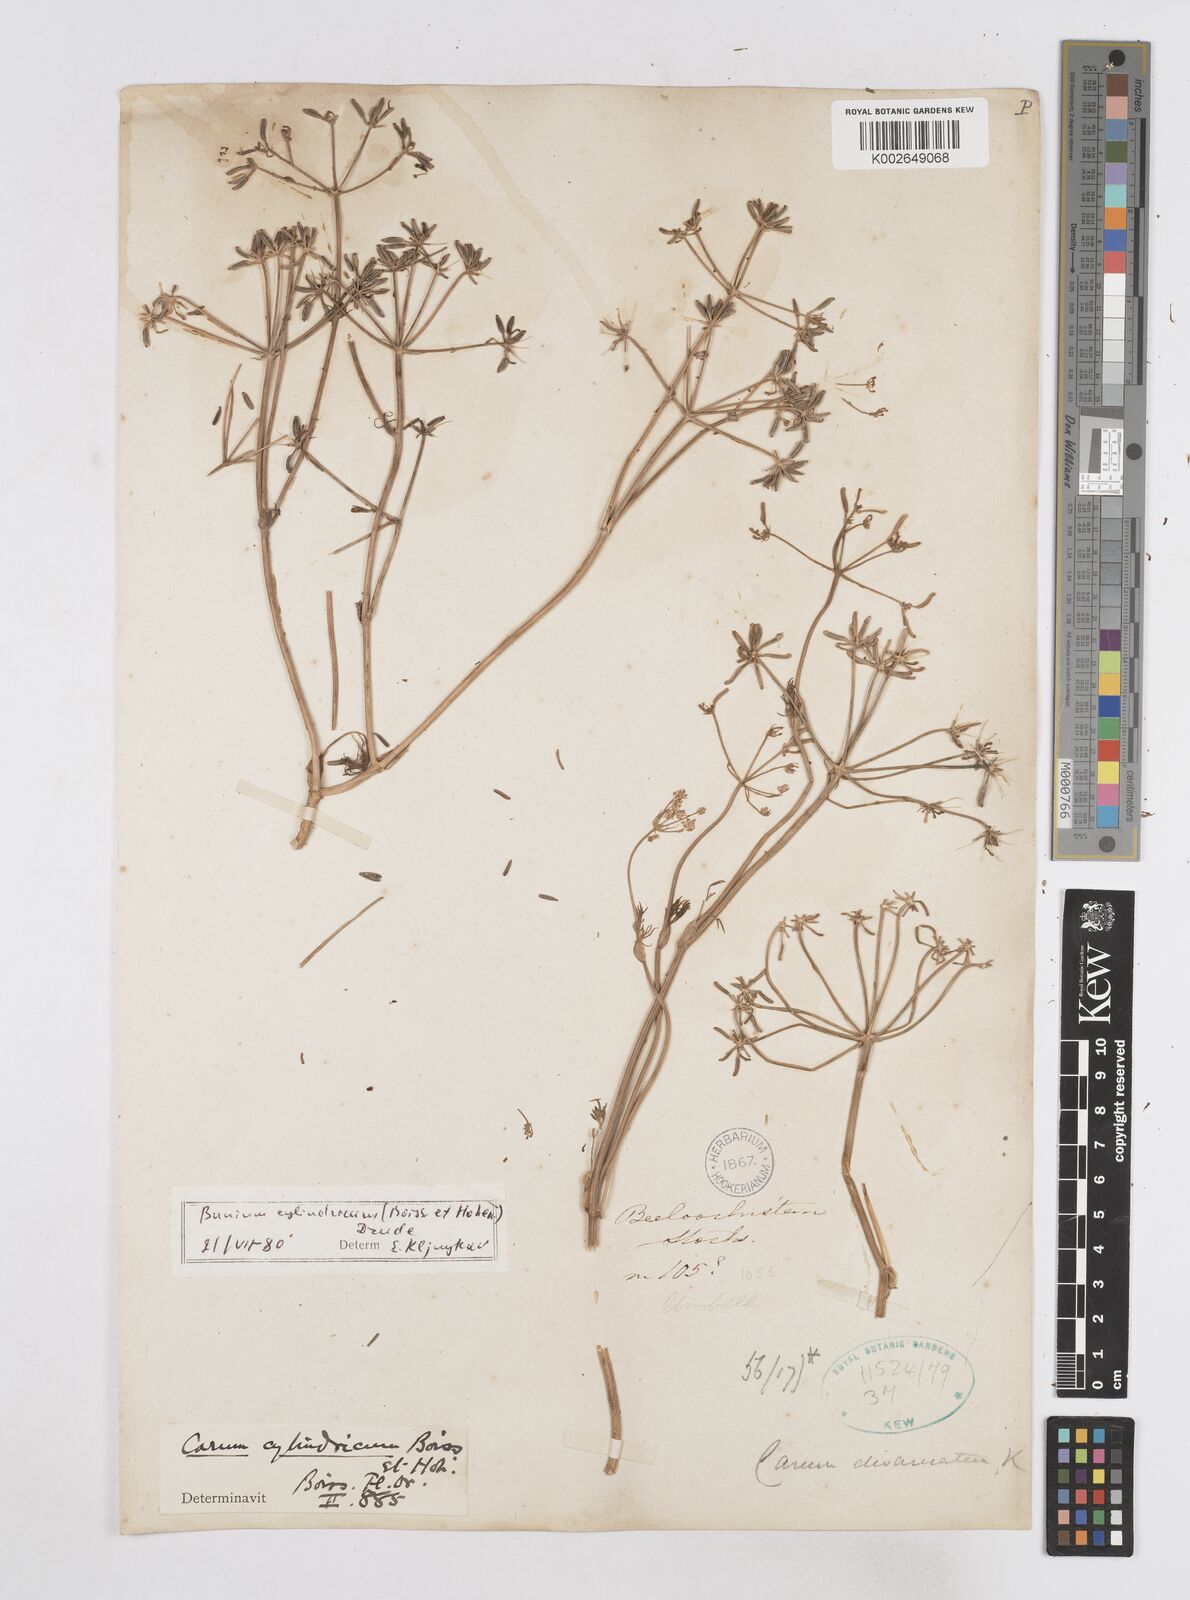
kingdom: Plantae
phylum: Tracheophyta
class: Magnoliopsida
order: Apiales
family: Apiaceae
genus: Elwendia
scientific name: Elwendia cylindrica
